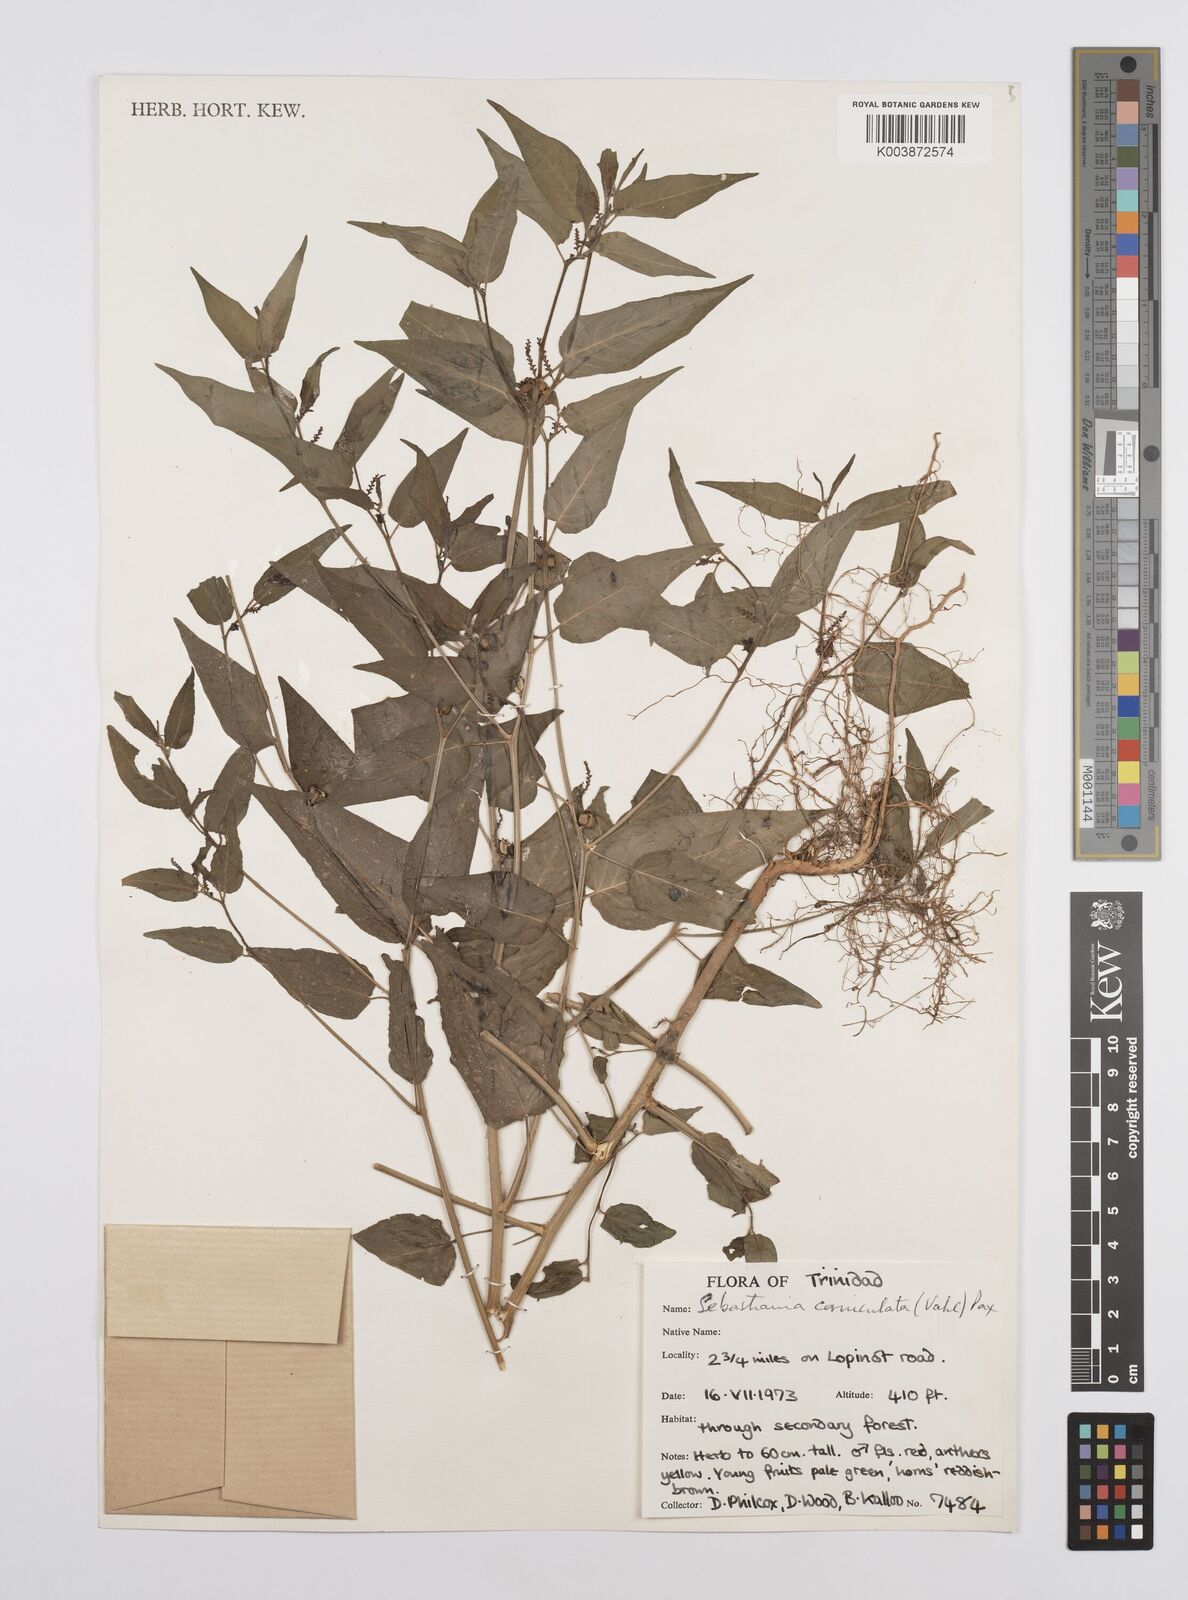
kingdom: Plantae
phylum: Tracheophyta
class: Magnoliopsida
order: Malpighiales
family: Euphorbiaceae
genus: Microstachys
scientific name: Microstachys corniculata
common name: Hato tejas
